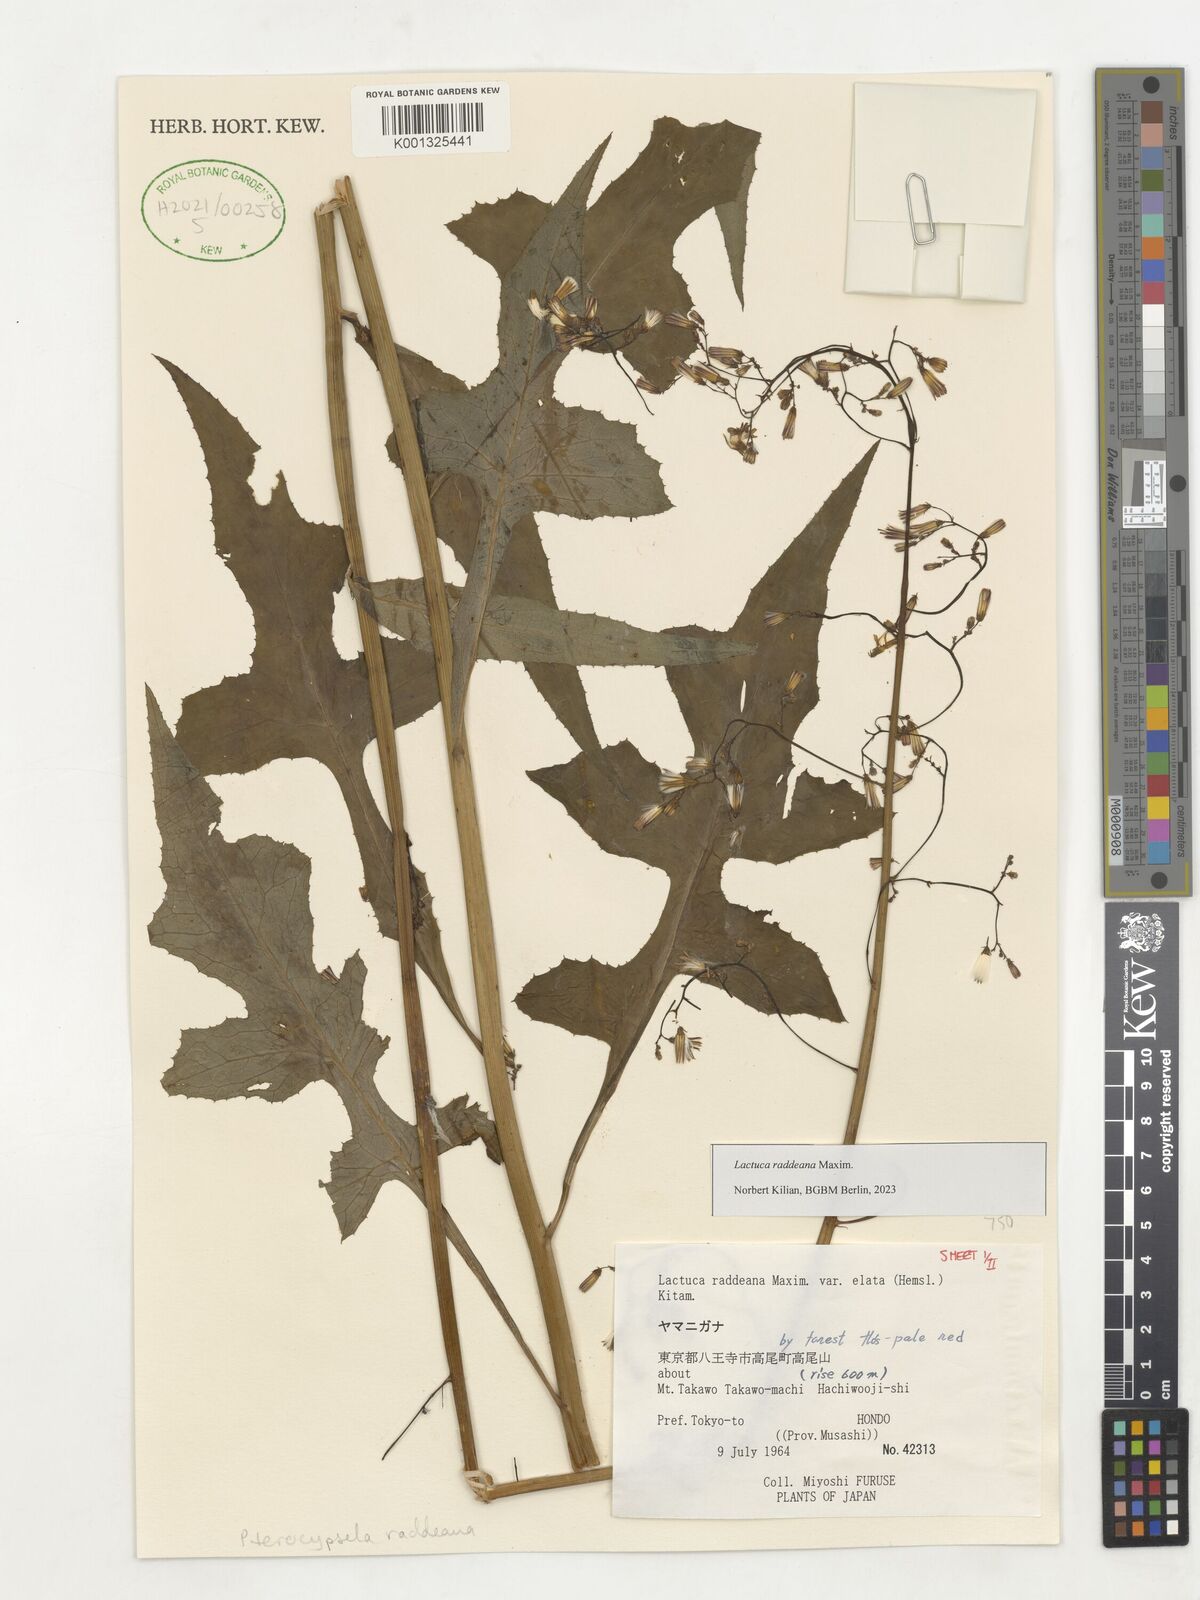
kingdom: Plantae
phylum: Tracheophyta
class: Magnoliopsida
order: Asterales
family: Asteraceae
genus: Lactuca
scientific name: Lactuca raddeana
